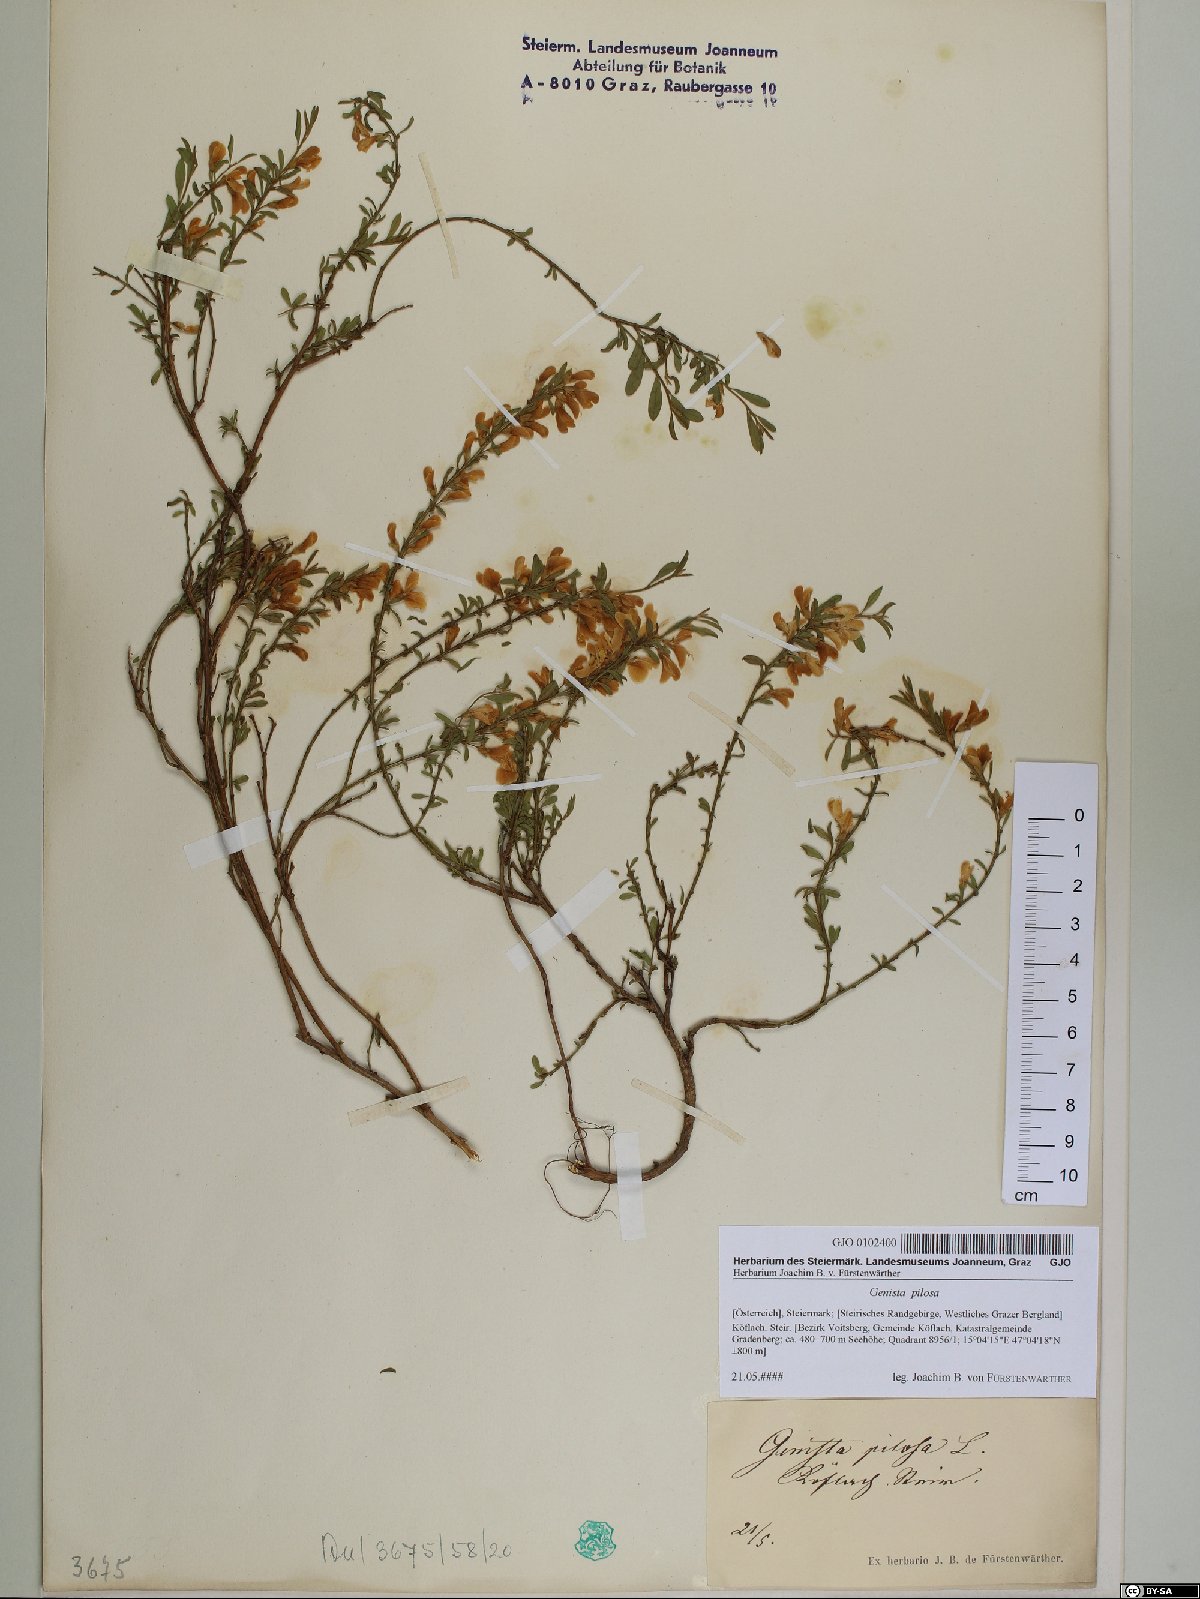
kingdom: Plantae
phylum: Tracheophyta
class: Magnoliopsida
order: Fabales
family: Fabaceae
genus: Genista
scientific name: Genista pilosa
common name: Hairy greenweed
